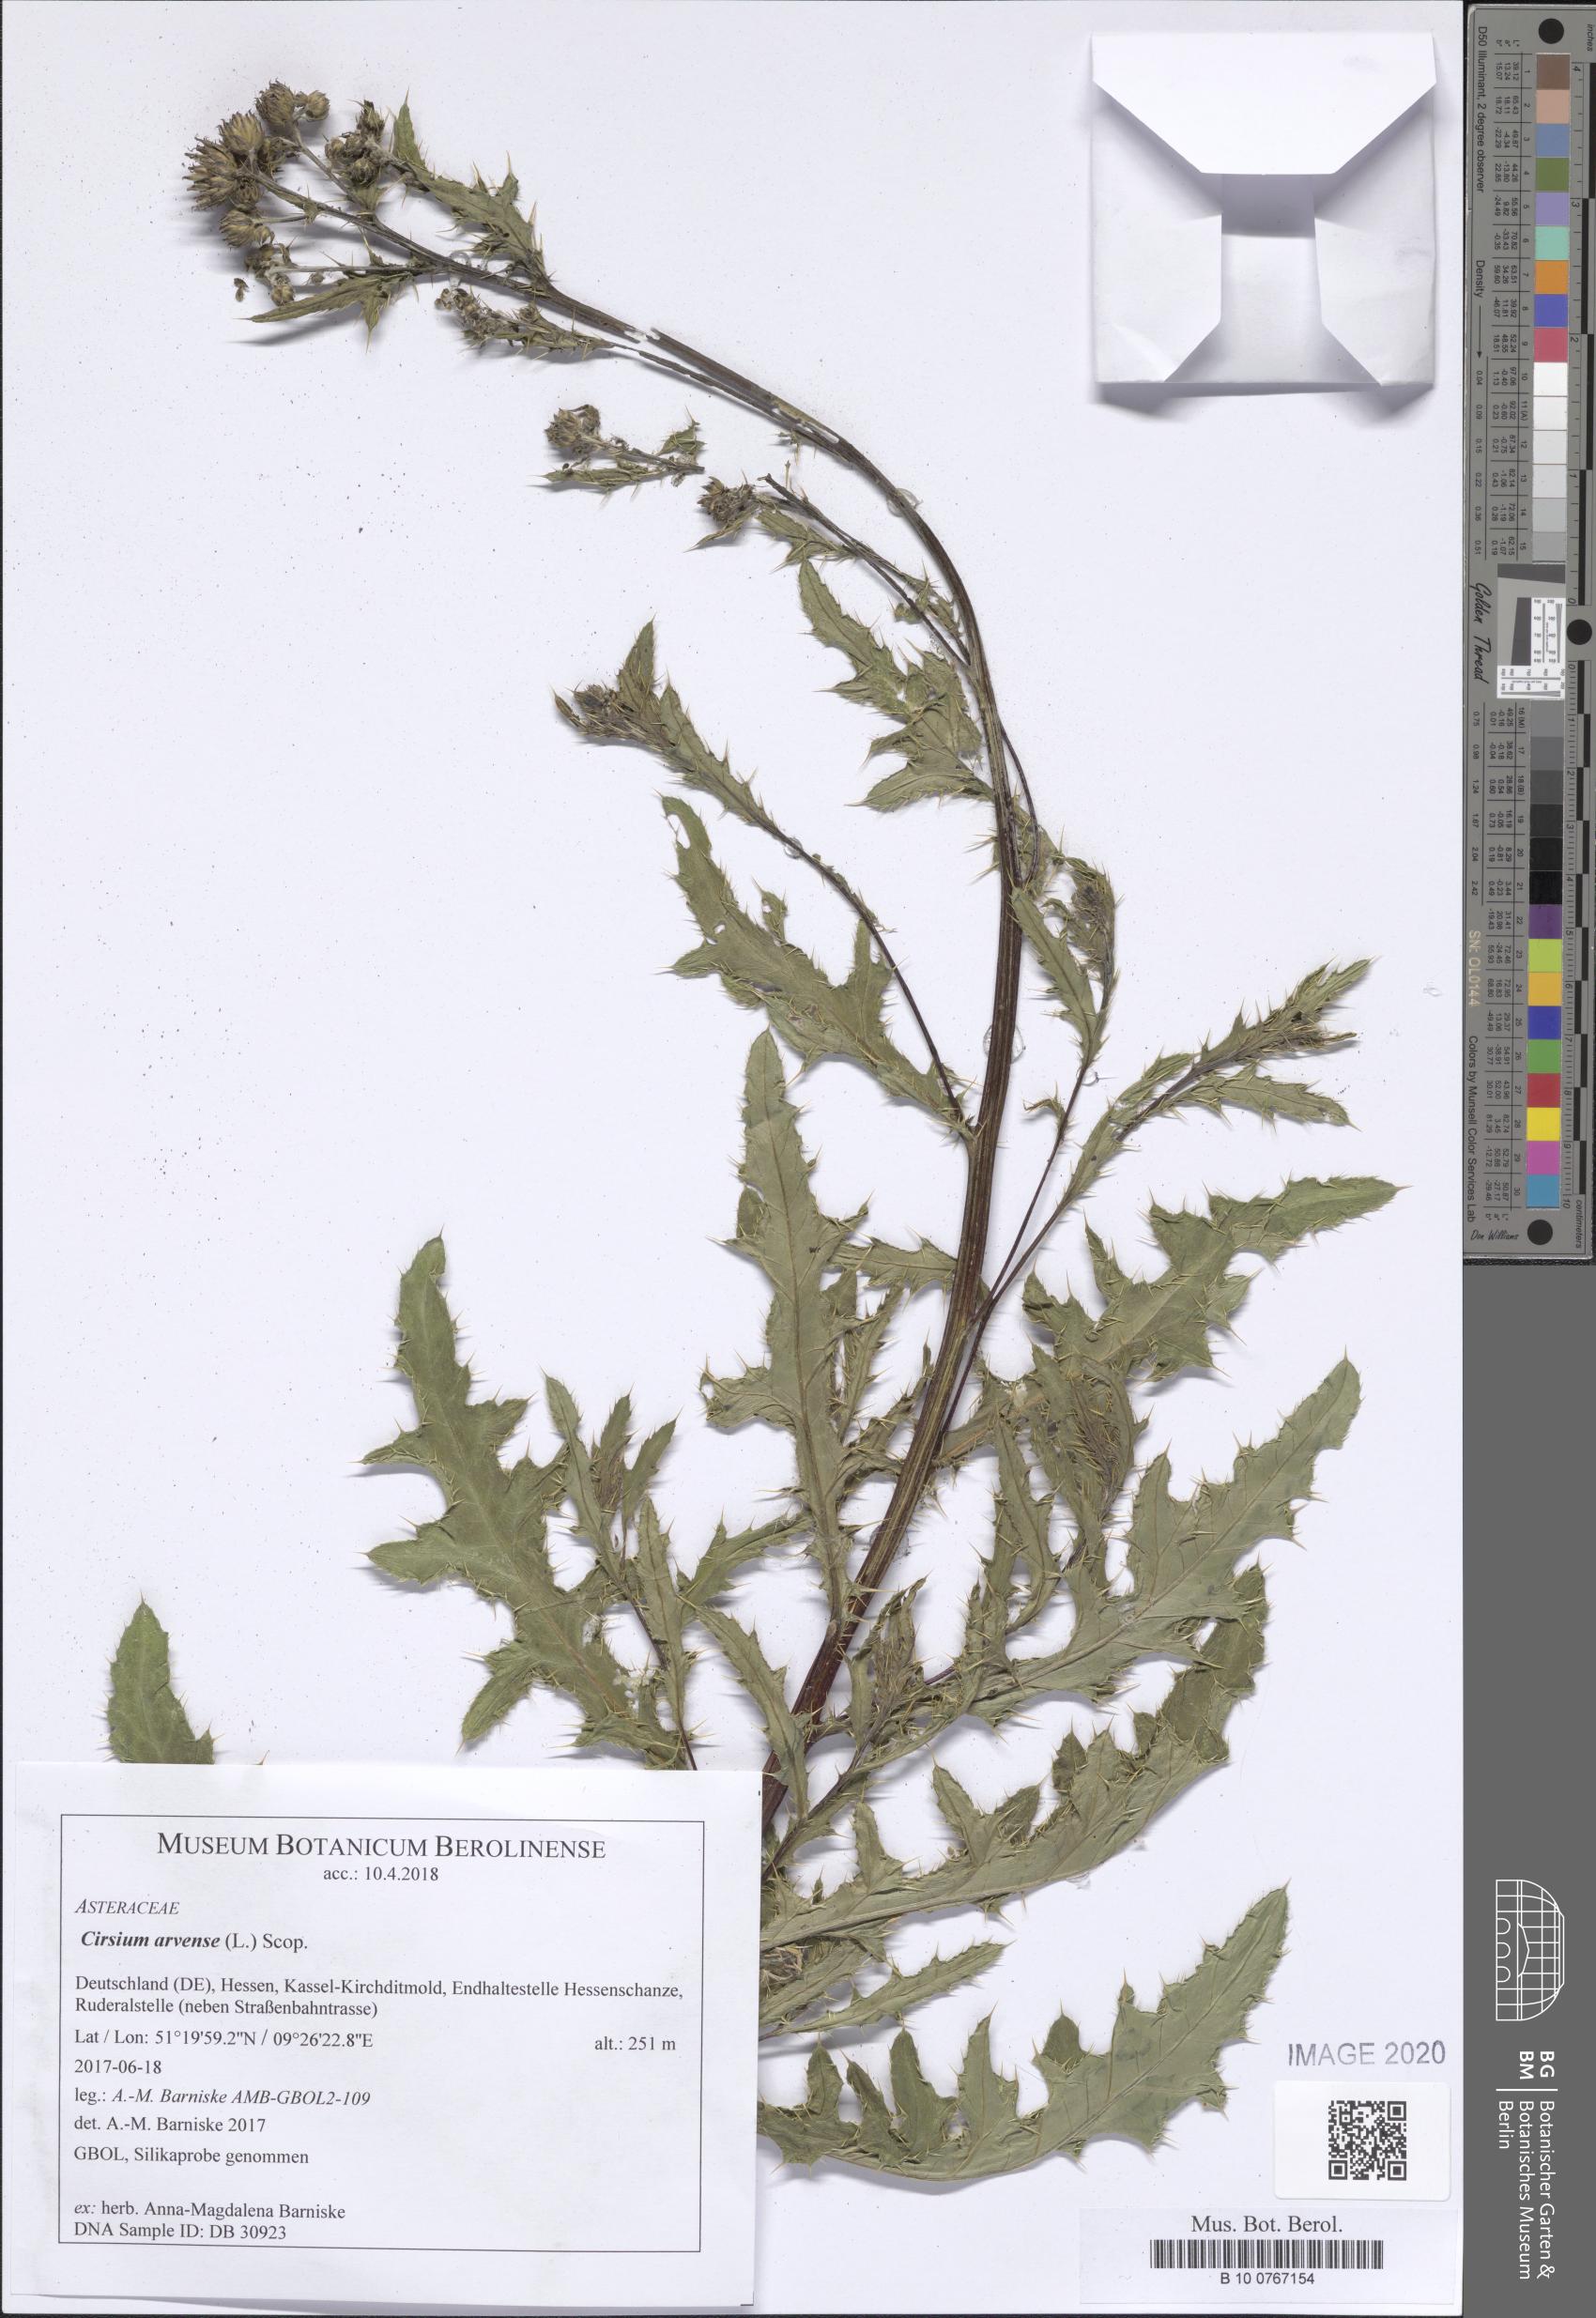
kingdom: Plantae
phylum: Tracheophyta
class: Magnoliopsida
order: Asterales
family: Asteraceae
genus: Cirsium
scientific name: Cirsium arvense
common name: Creeping thistle
